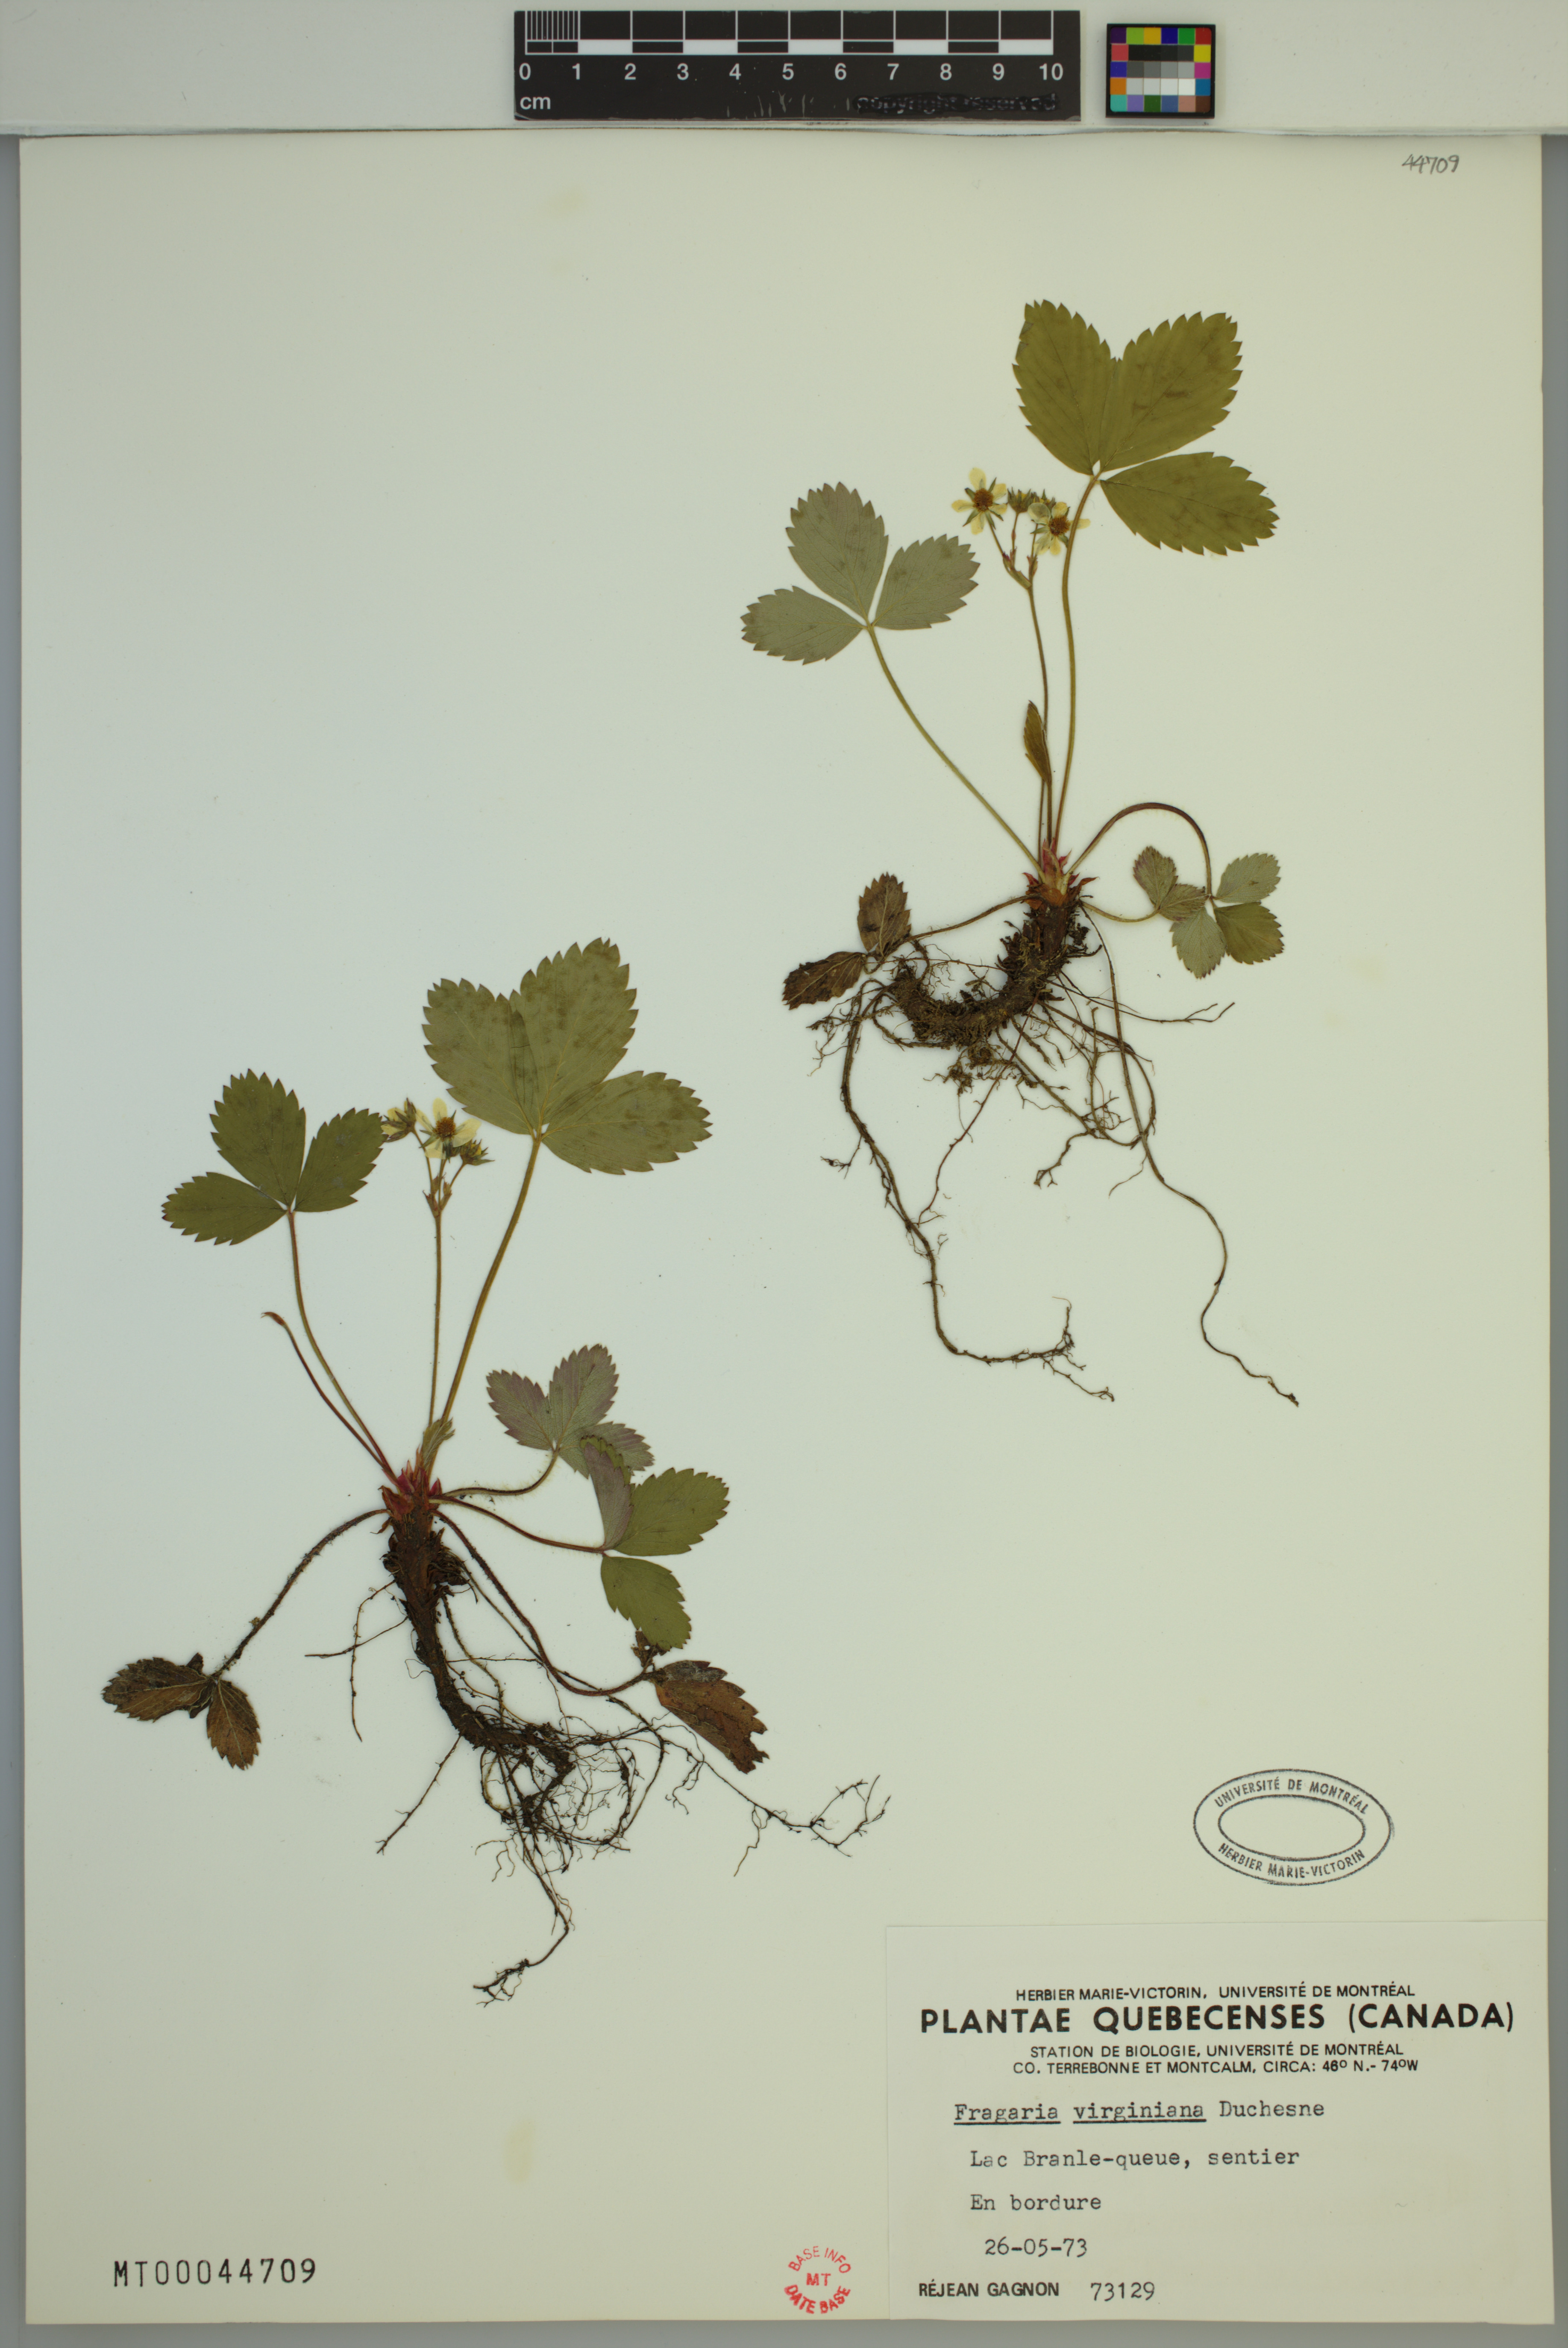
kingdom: Plantae
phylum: Tracheophyta
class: Magnoliopsida
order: Rosales
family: Rosaceae
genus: Fragaria
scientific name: Fragaria virginiana
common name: Thickleaved wild strawberry
